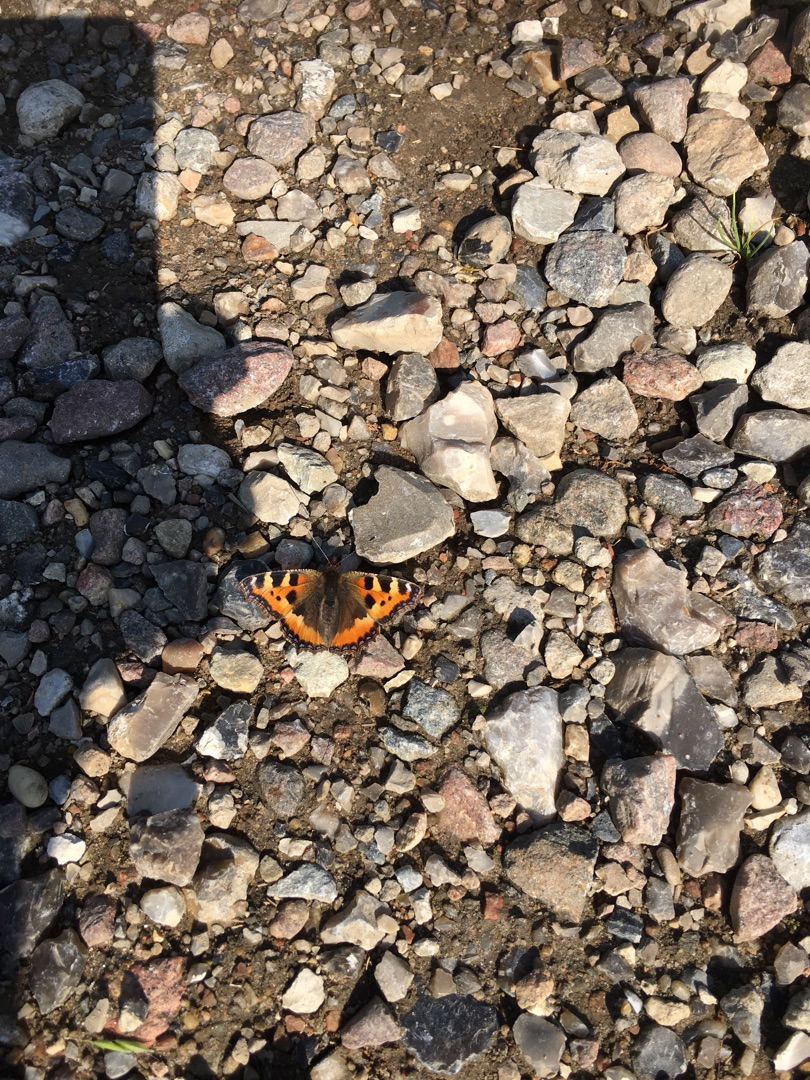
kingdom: Animalia
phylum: Arthropoda
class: Insecta
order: Lepidoptera
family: Nymphalidae
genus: Aglais
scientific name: Aglais urticae
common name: Nældens takvinge
